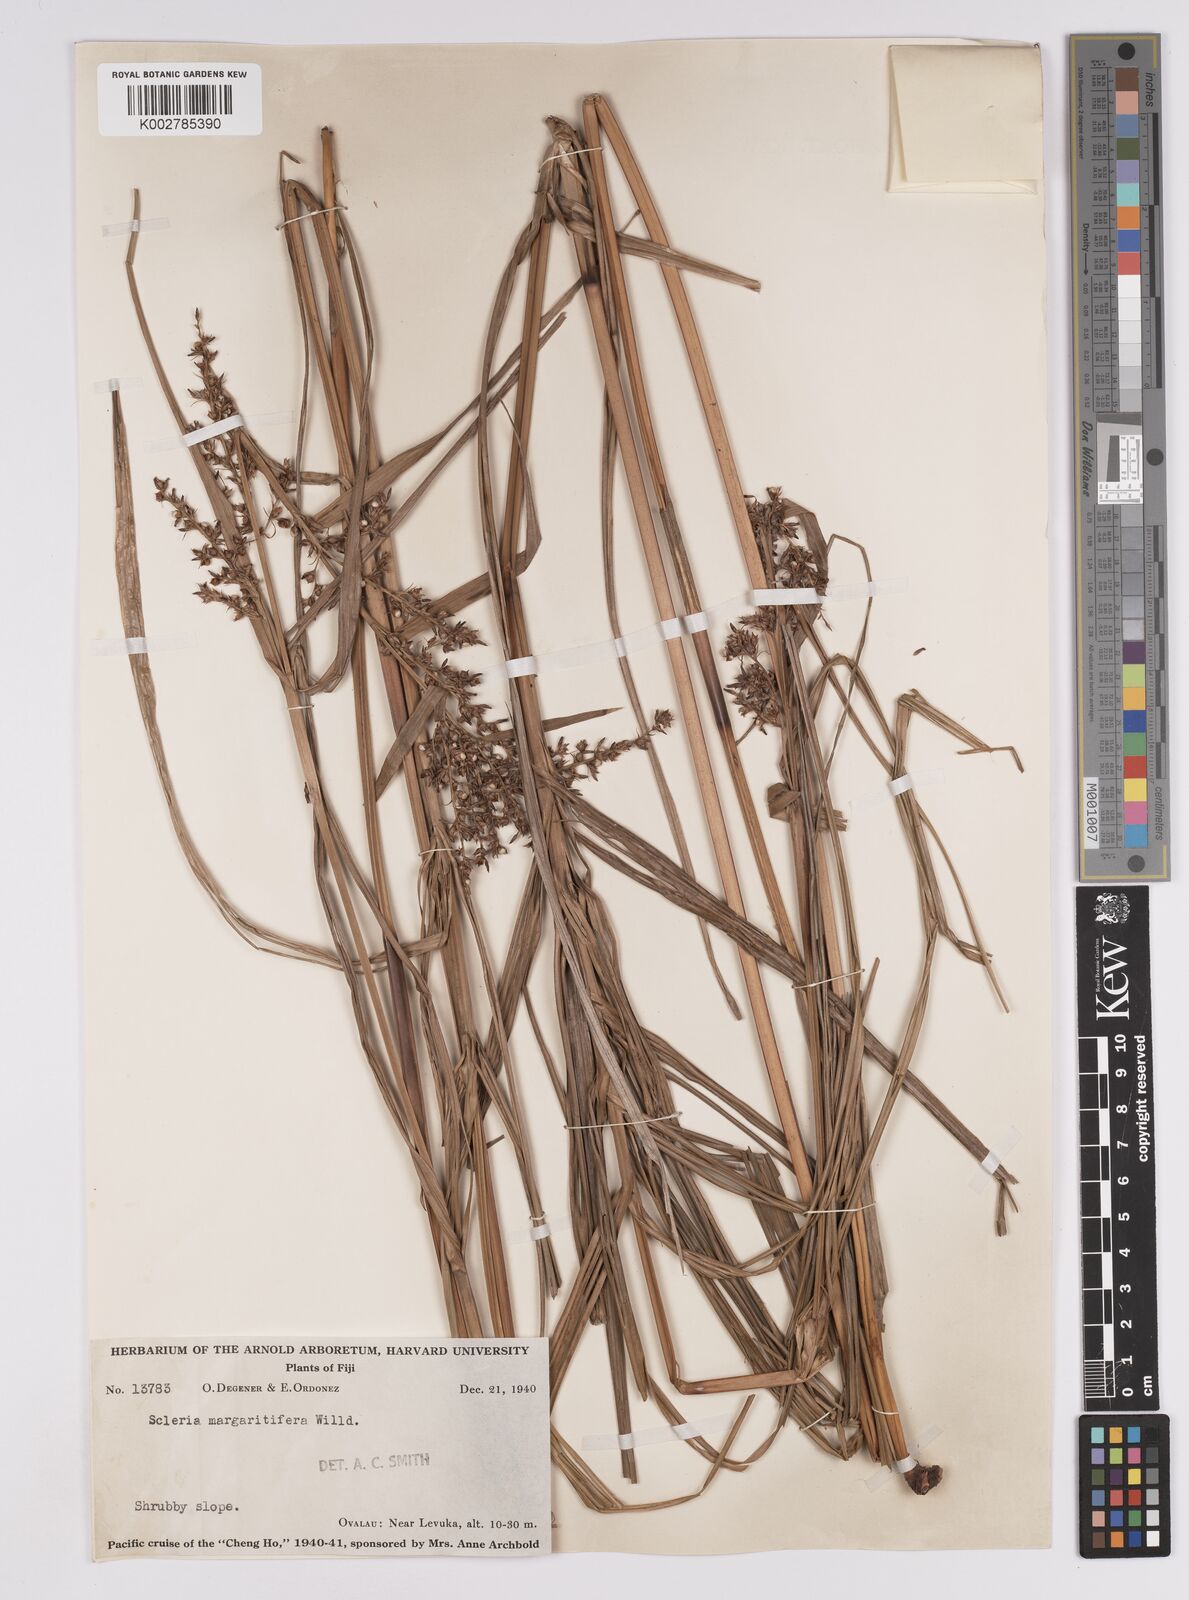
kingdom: Plantae
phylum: Tracheophyta
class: Liliopsida
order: Poales
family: Cyperaceae
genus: Scleria
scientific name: Scleria polycarpa
